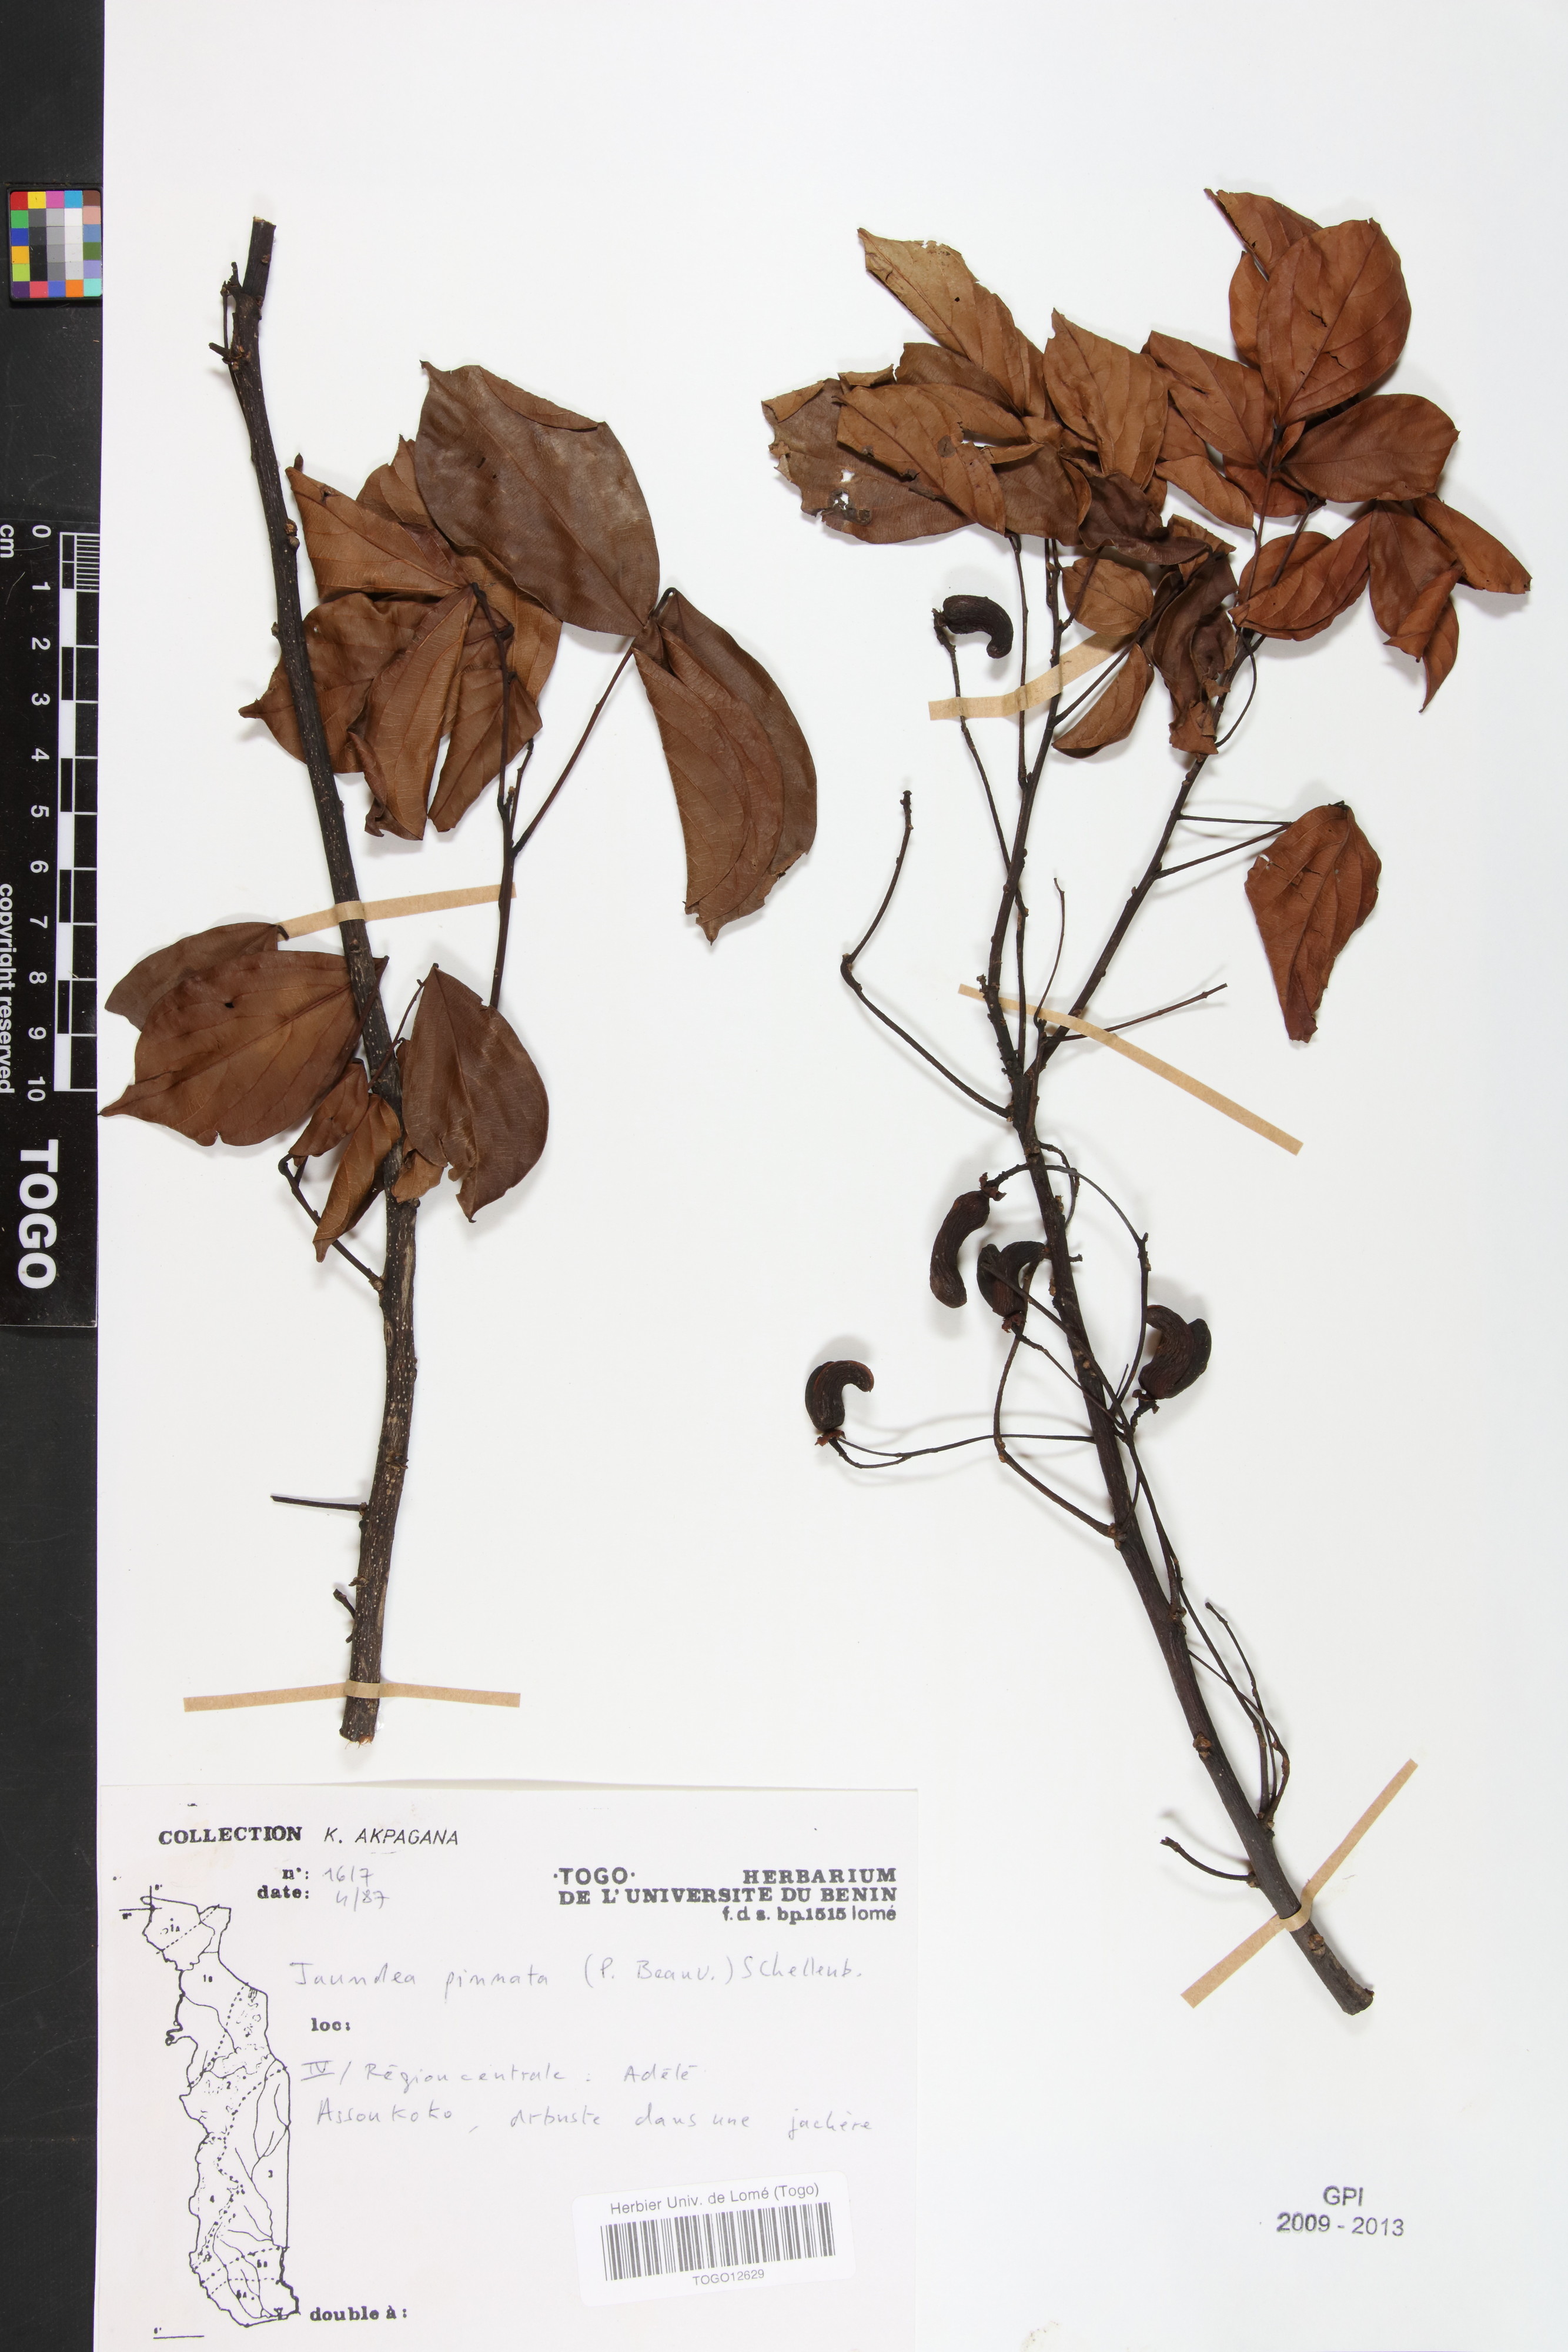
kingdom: Plantae
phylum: Tracheophyta
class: Magnoliopsida
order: Oxalidales
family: Connaraceae
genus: Rourea
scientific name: Rourea thomsonii
